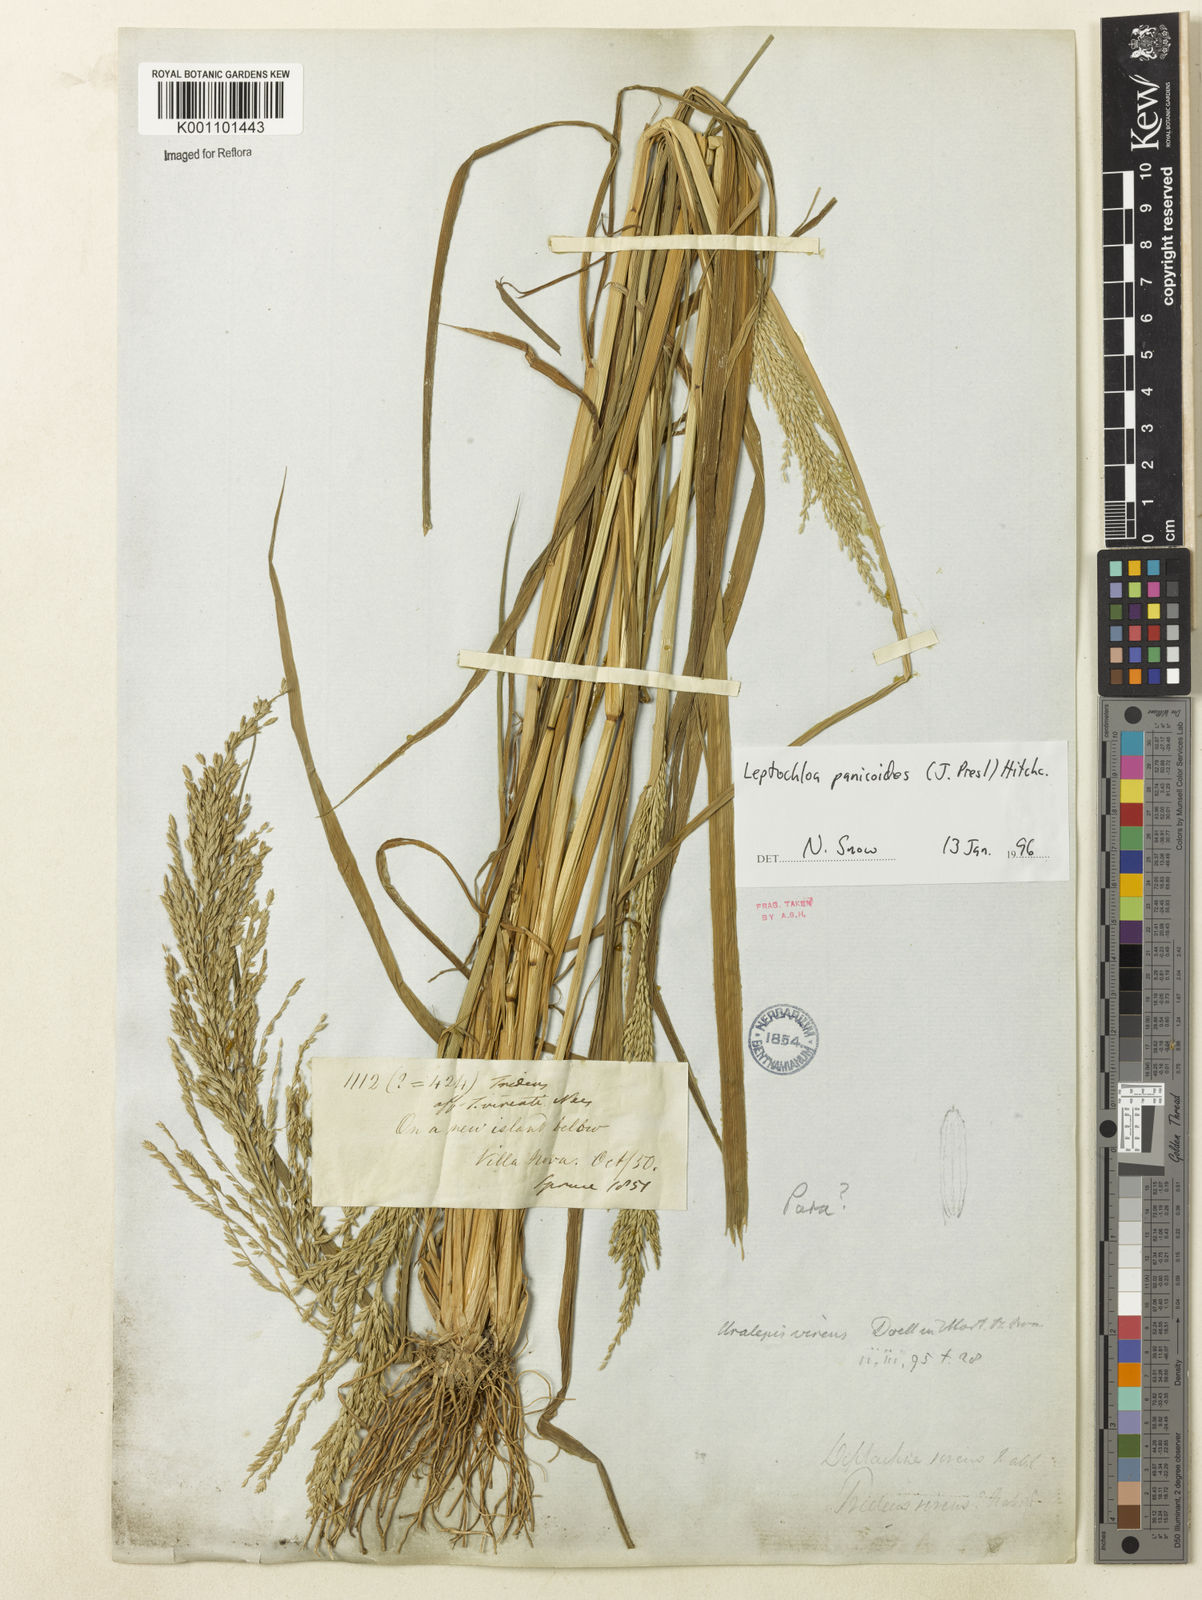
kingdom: Plantae
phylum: Tracheophyta
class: Liliopsida
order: Poales
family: Poaceae
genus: Leptochloa
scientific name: Leptochloa panicoides
